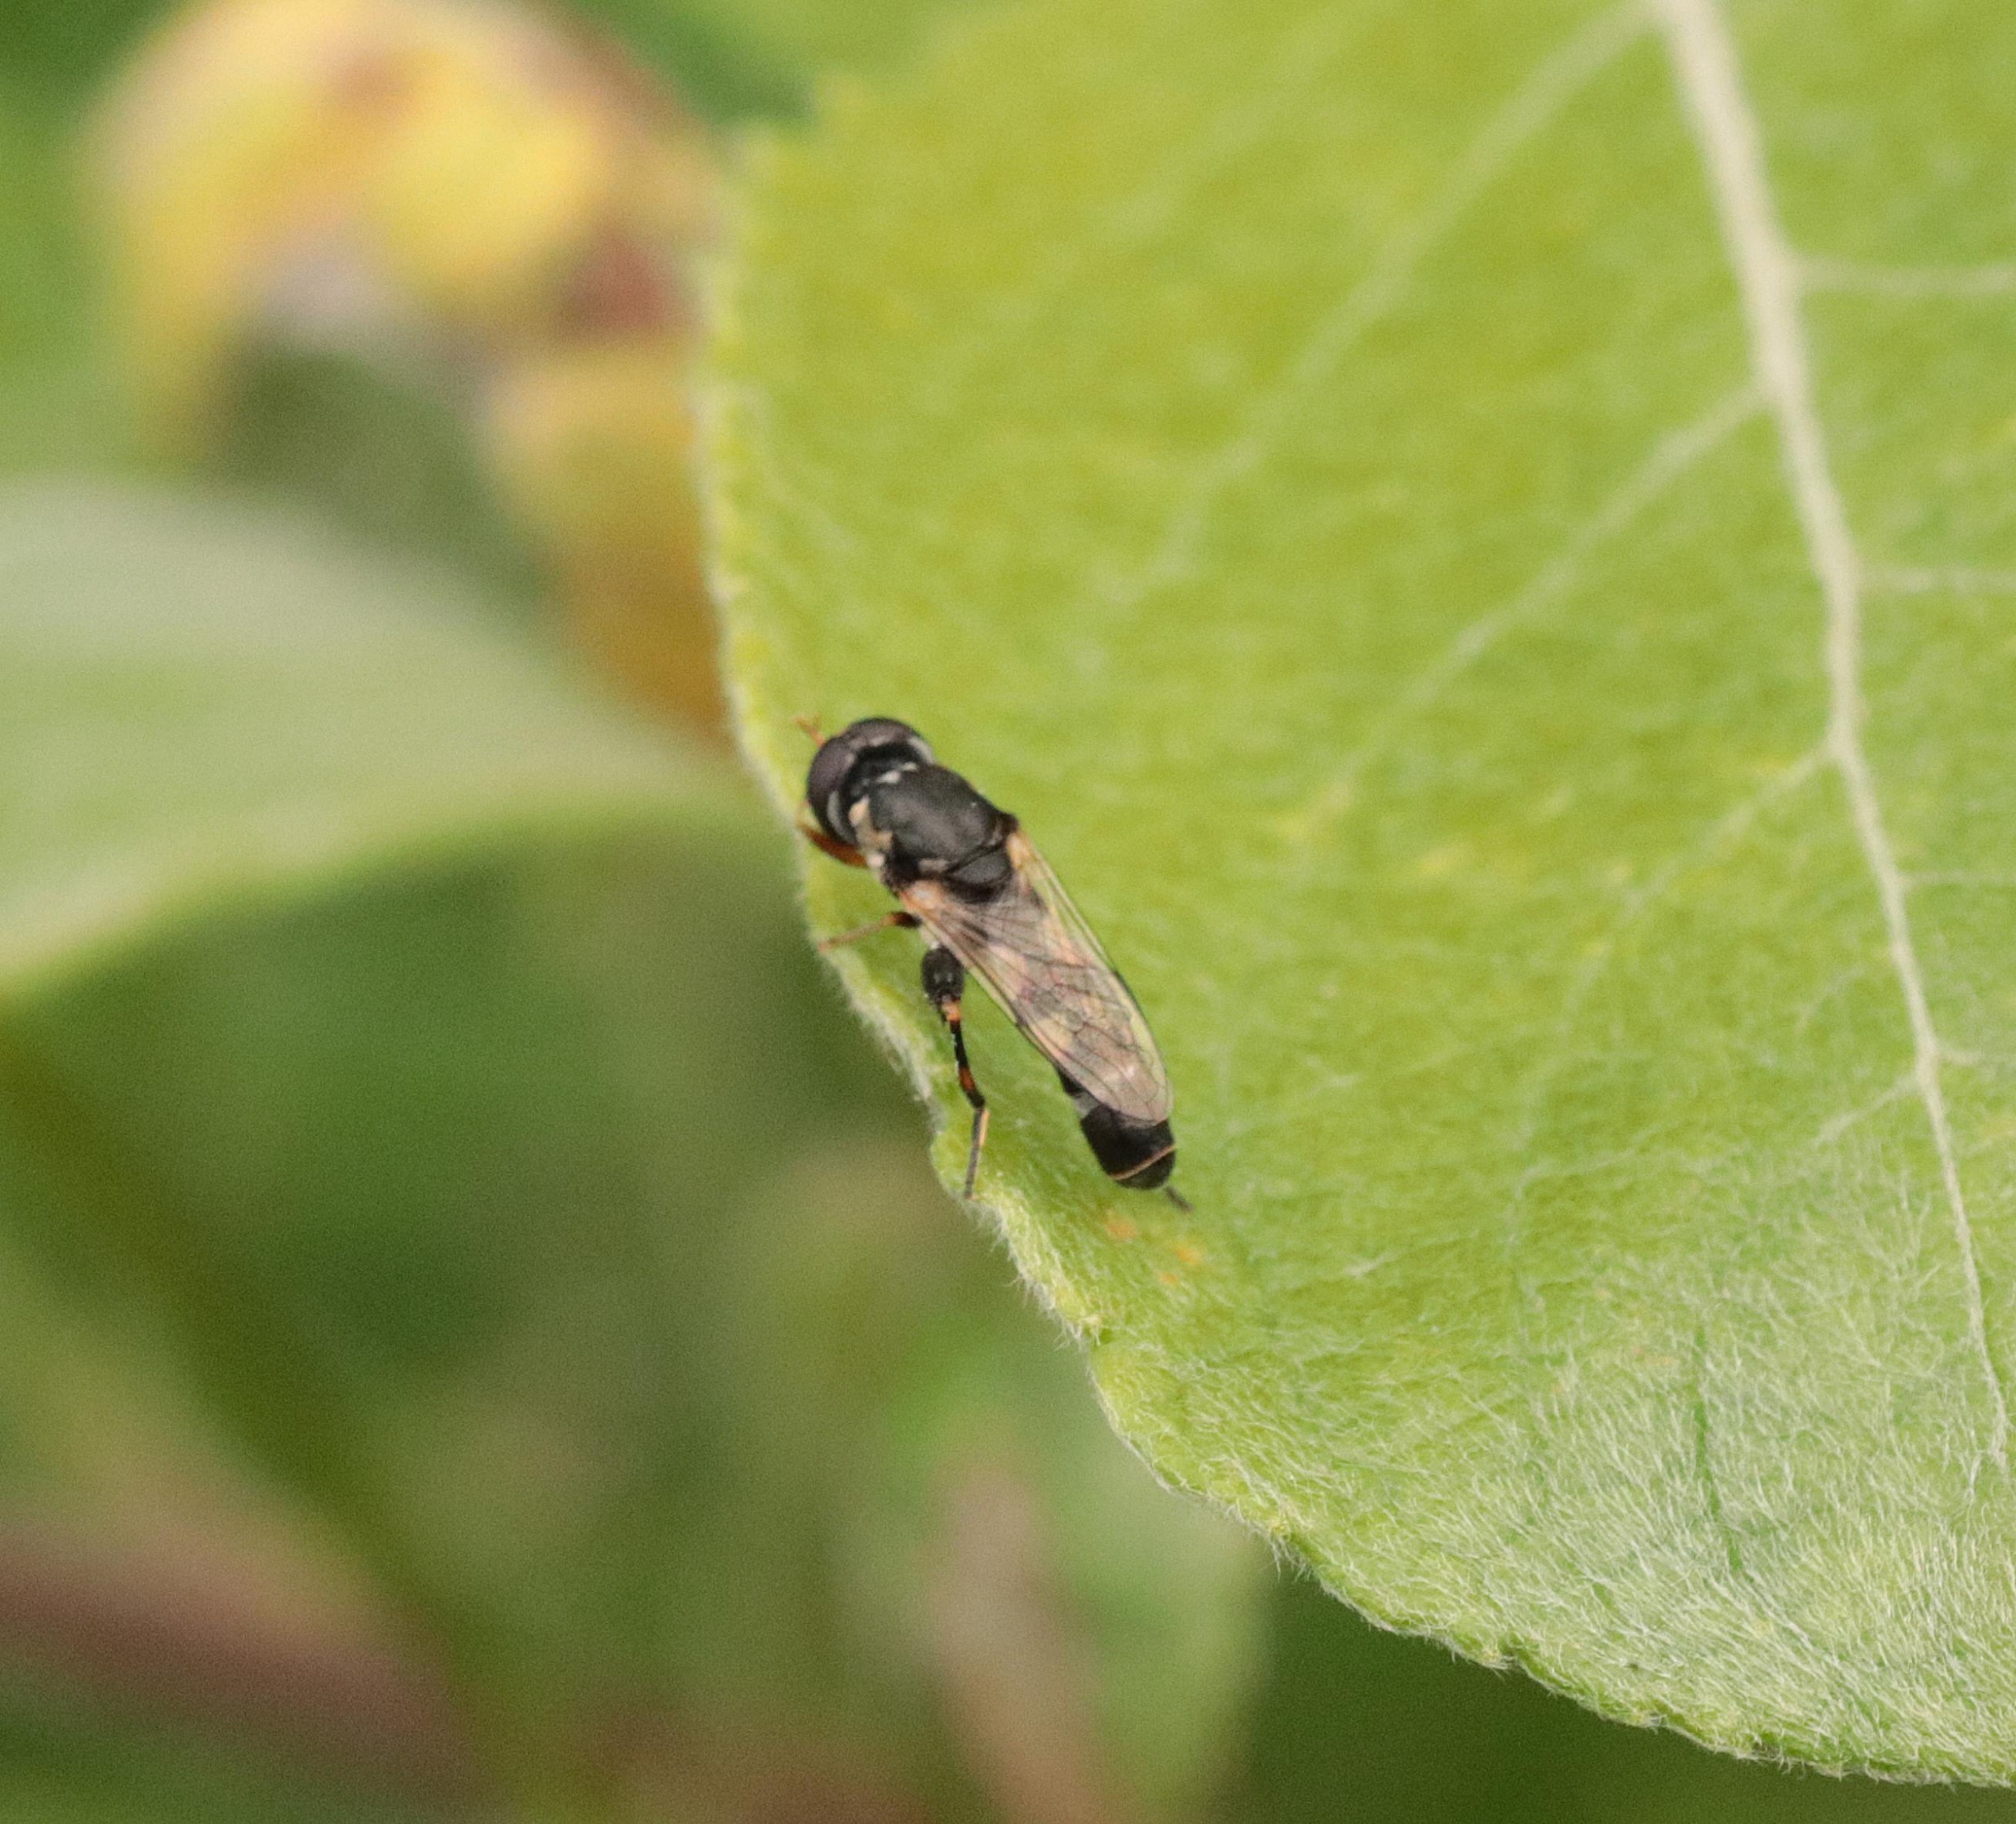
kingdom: Animalia
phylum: Arthropoda
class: Insecta
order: Diptera
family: Syrphidae
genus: Syritta
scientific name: Syritta pipiens
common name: Kompost-svirreflue
